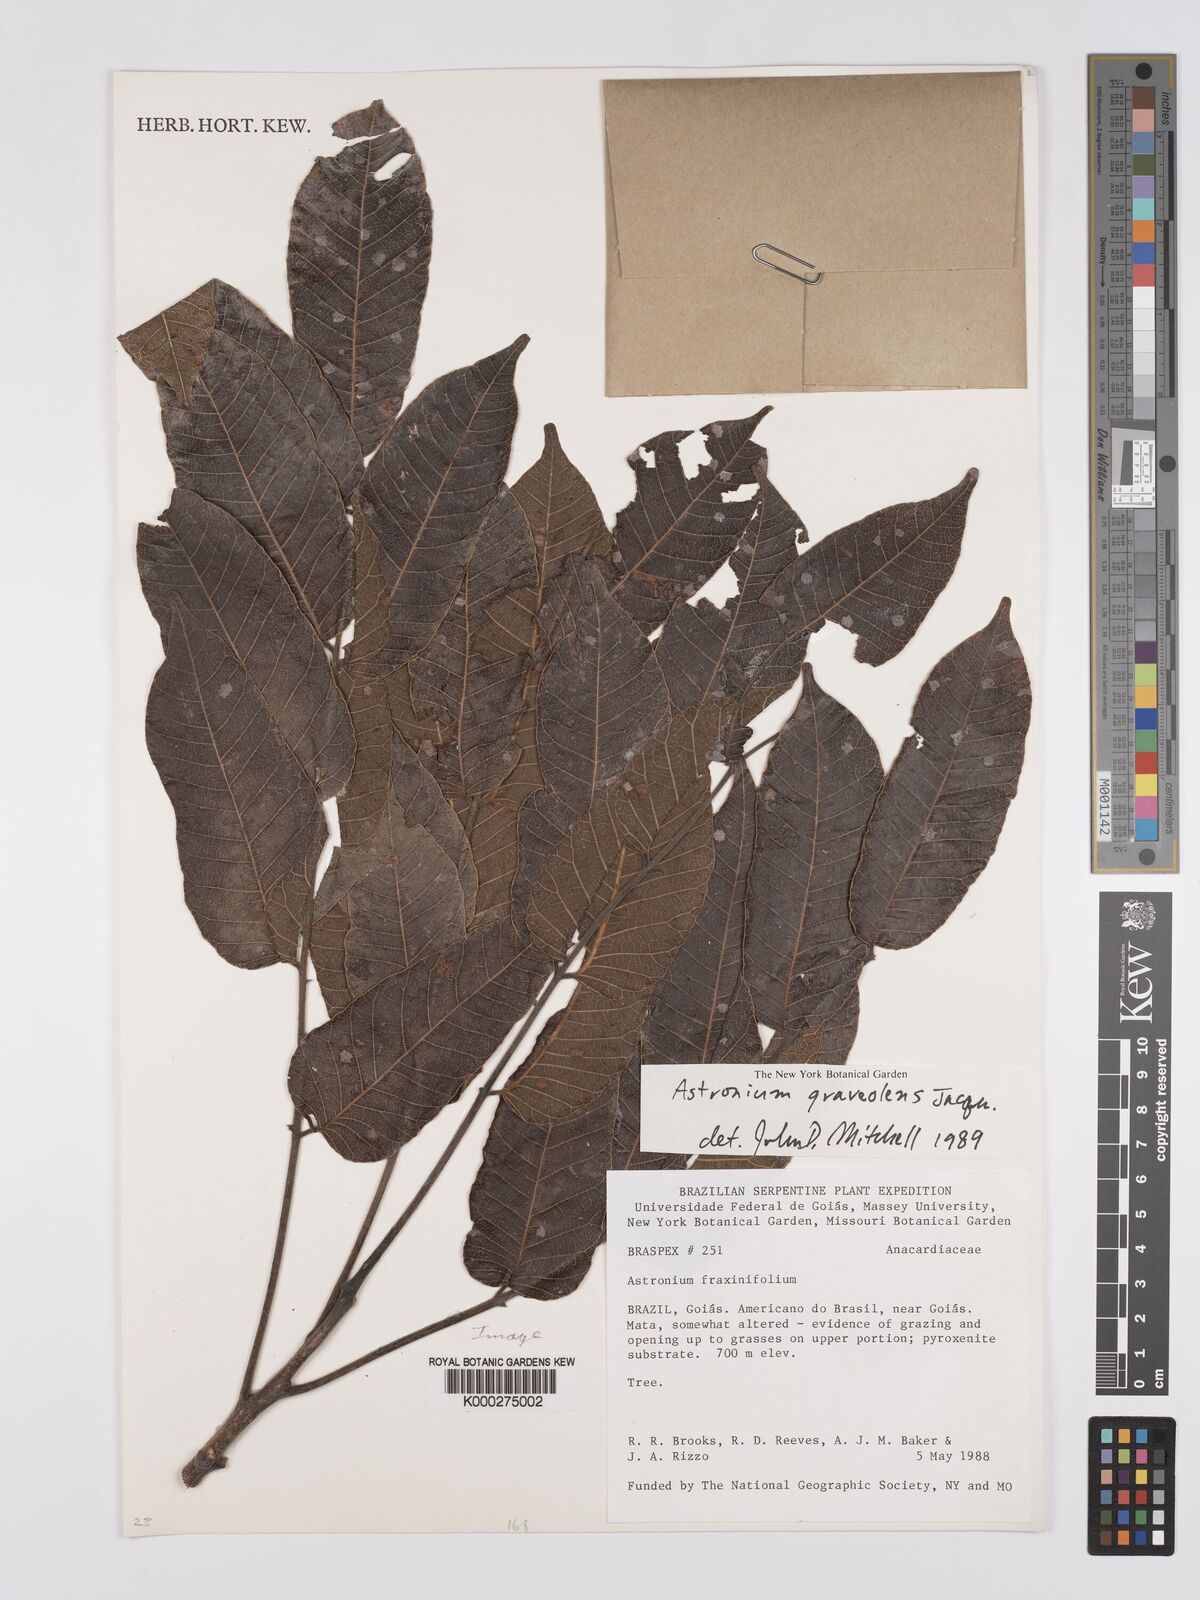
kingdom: Plantae
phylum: Tracheophyta
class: Magnoliopsida
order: Sapindales
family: Anacardiaceae
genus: Astronium
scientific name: Astronium graveolens
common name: Glassywood
